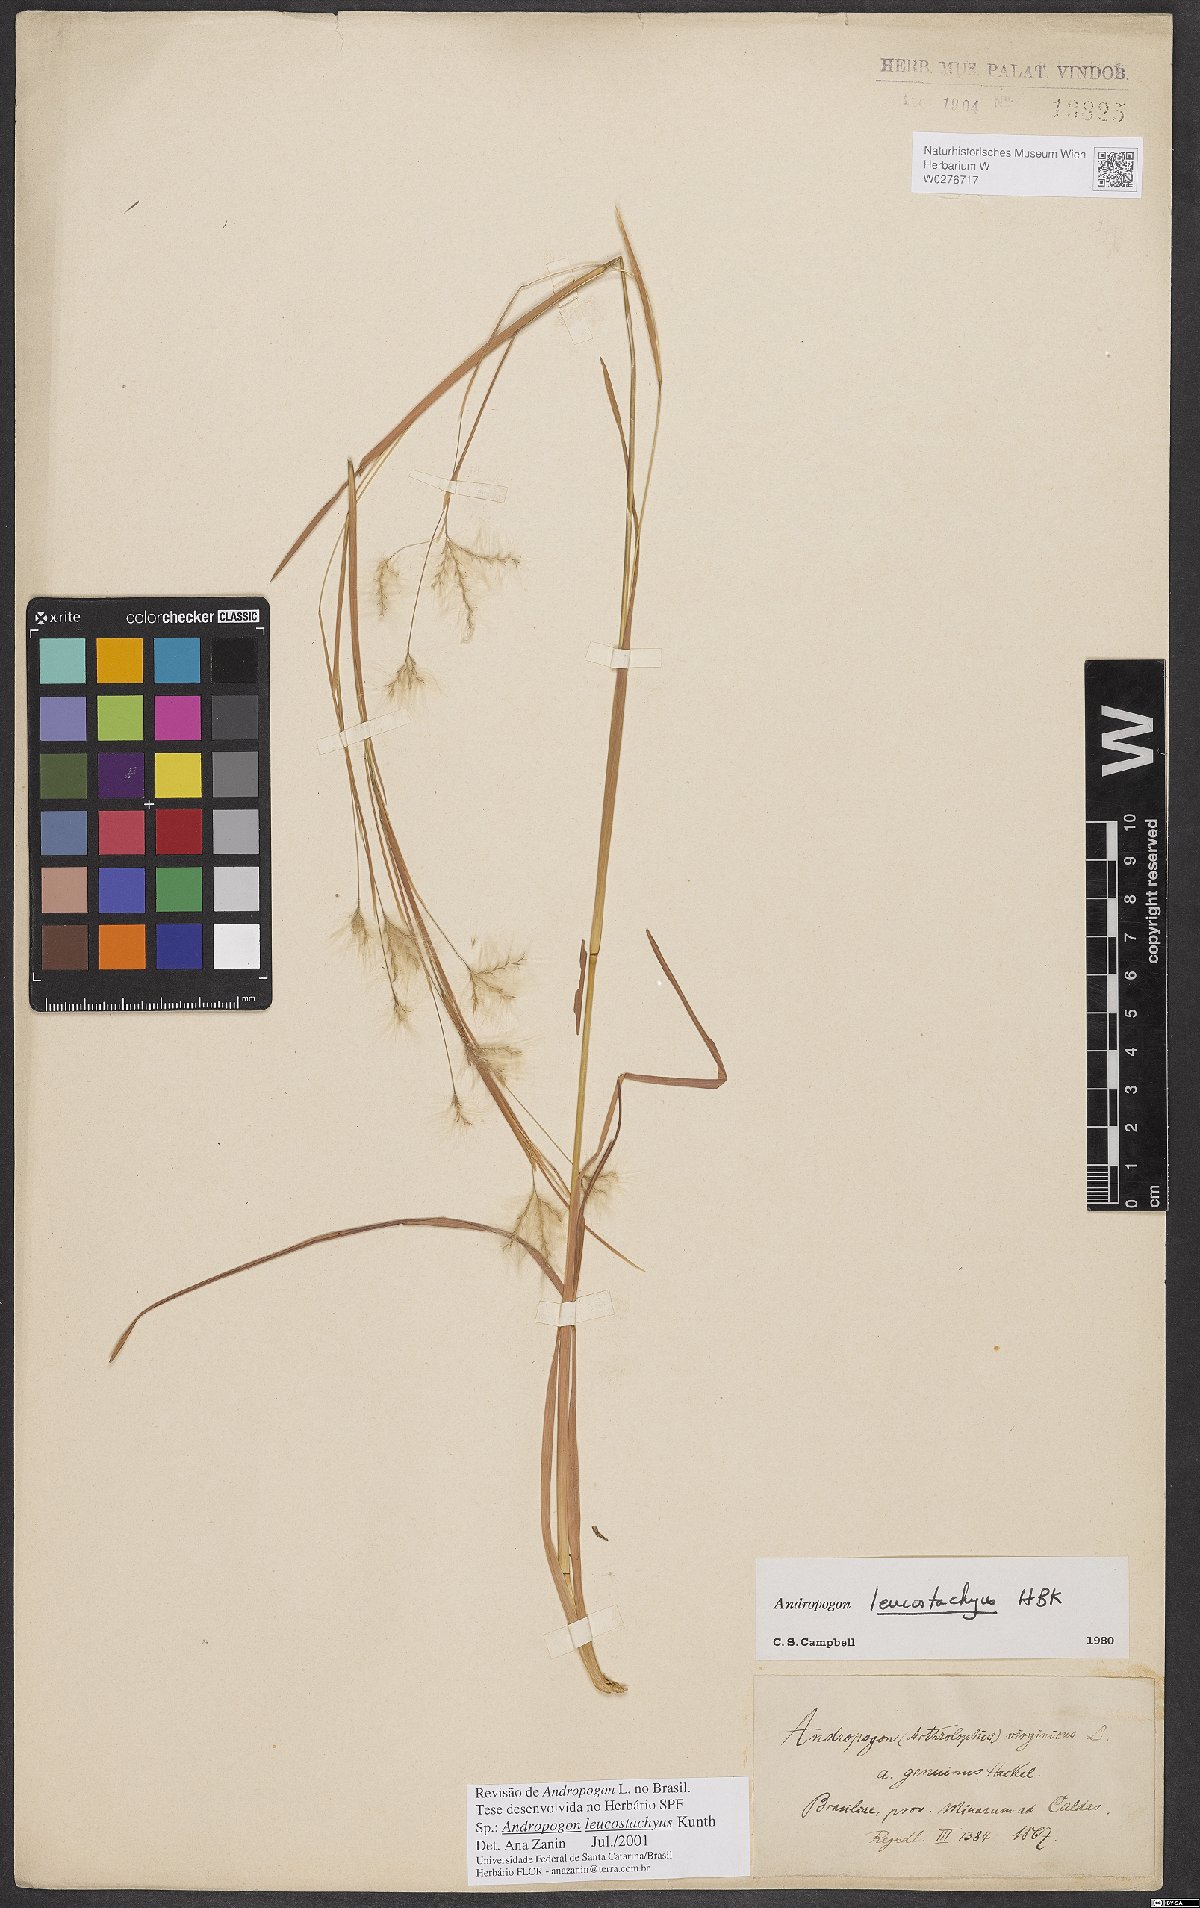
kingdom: Plantae
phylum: Tracheophyta
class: Liliopsida
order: Poales
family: Poaceae
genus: Andropogon
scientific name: Andropogon leucostachyus
